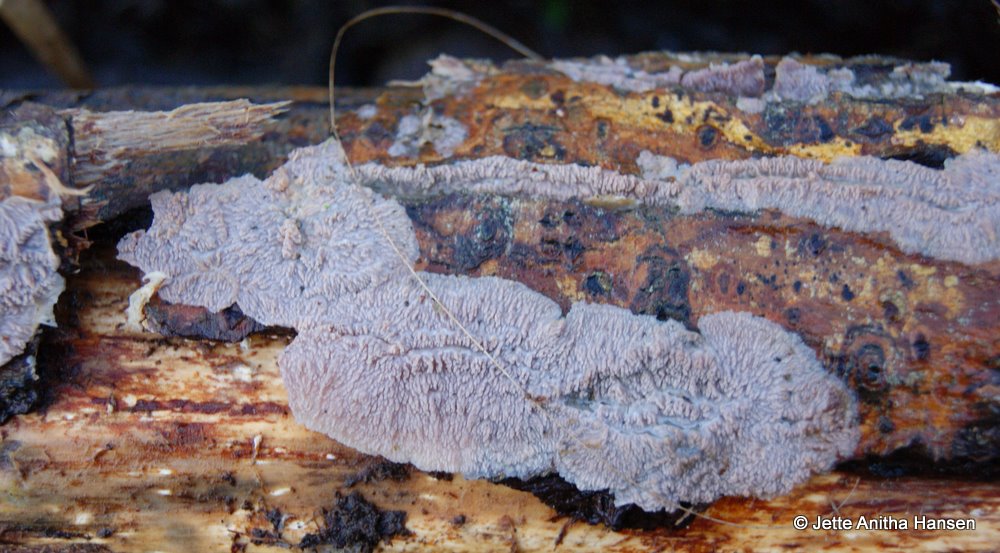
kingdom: Fungi
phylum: Basidiomycota
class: Agaricomycetes
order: Polyporales
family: Meruliaceae
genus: Phlebia
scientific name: Phlebia radiata
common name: stråle-åresvamp
